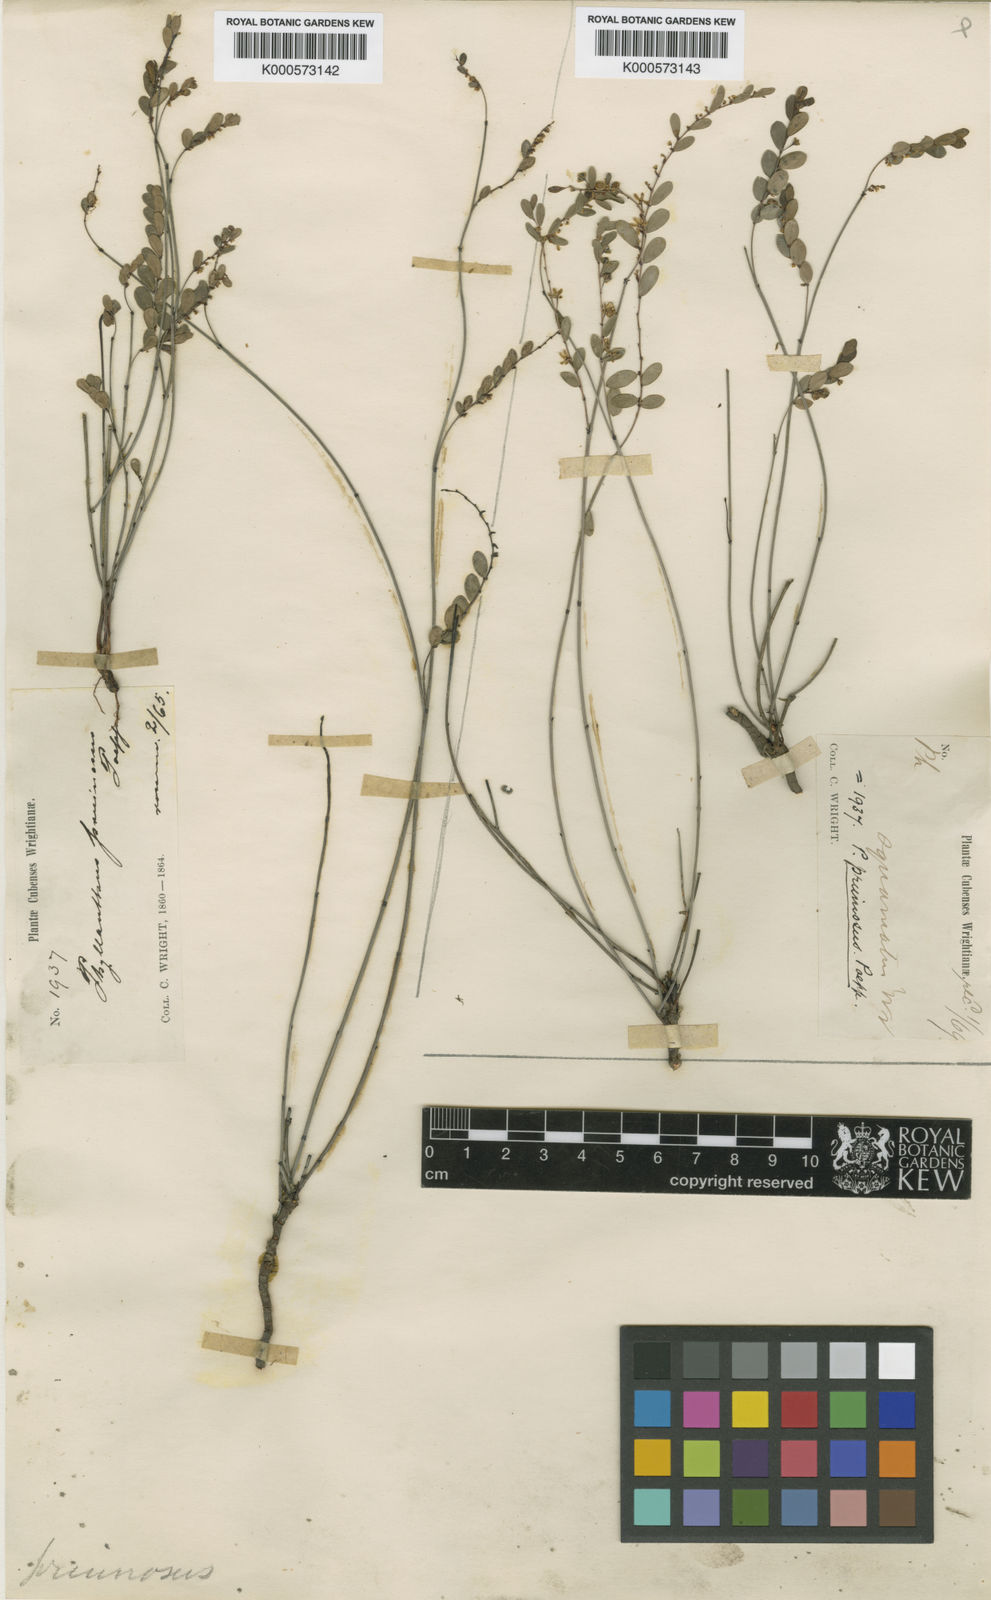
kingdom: Plantae
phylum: Tracheophyta
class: Magnoliopsida
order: Malpighiales
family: Phyllanthaceae
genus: Phyllanthus
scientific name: Phyllanthus discolor
